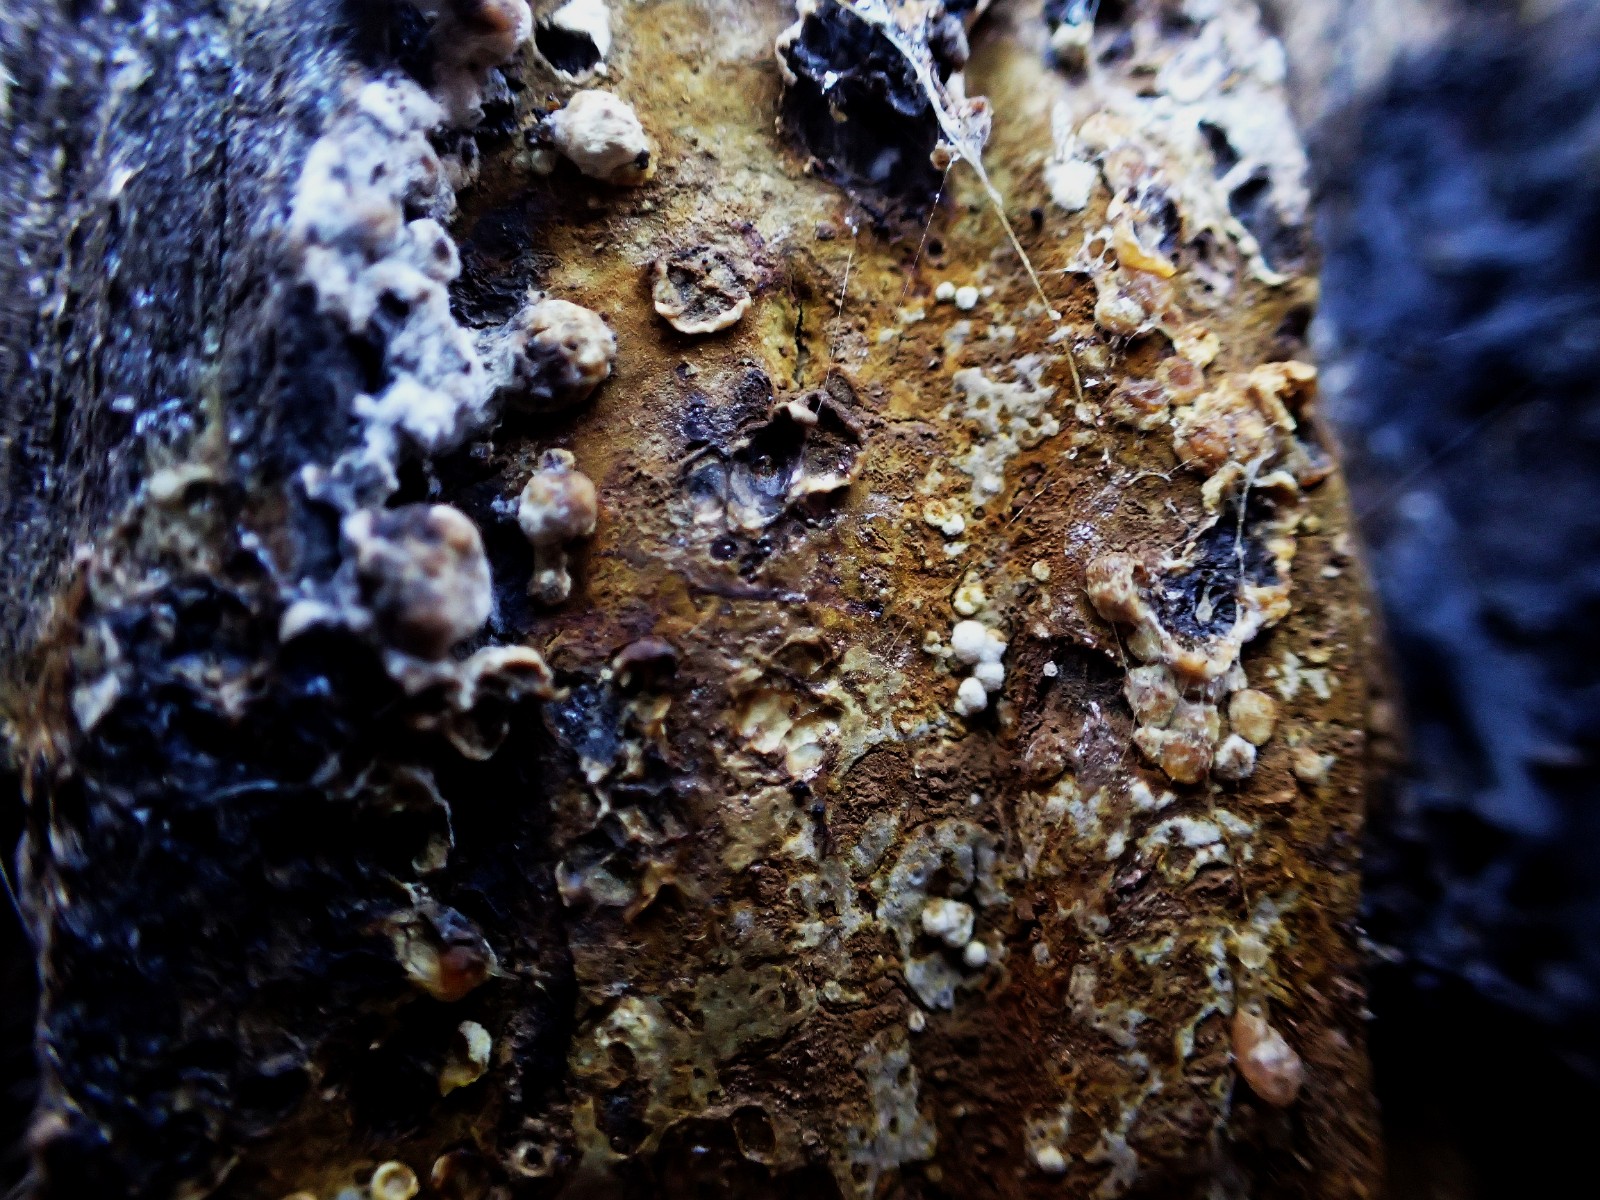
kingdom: Fungi
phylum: Basidiomycota
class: Agaricomycetes
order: Boletales
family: Coniophoraceae
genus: Coniophora
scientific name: Coniophora puteana
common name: gul tømmersvamp
